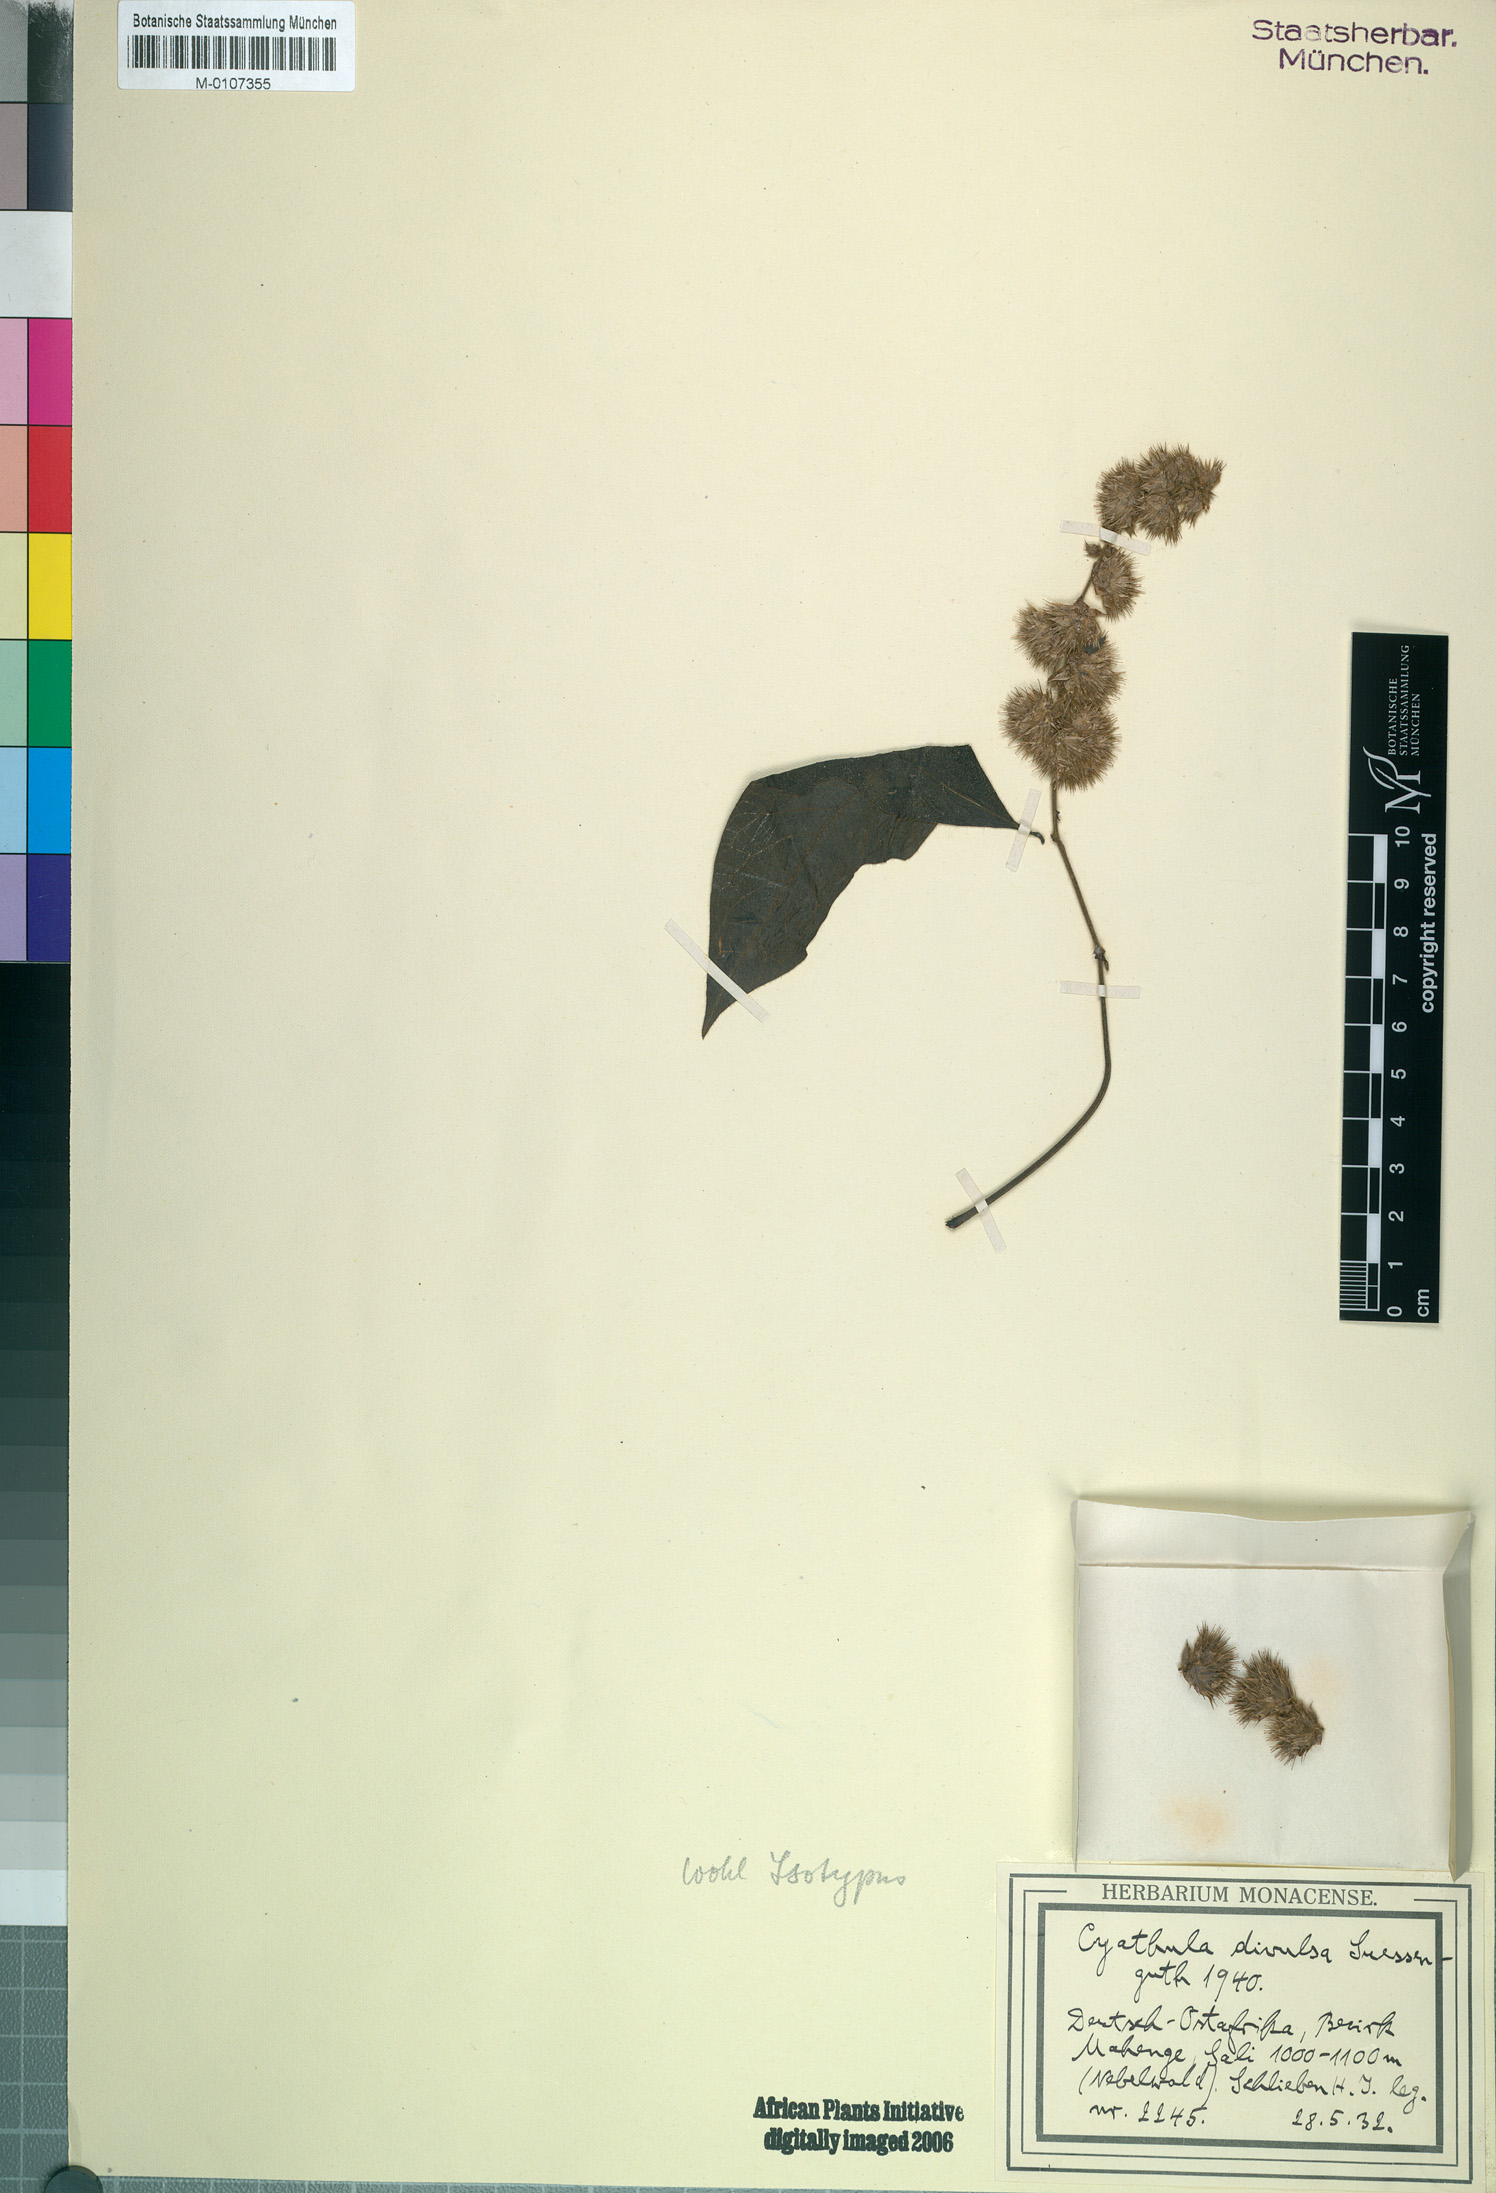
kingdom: Plantae
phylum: Tracheophyta
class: Magnoliopsida
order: Caryophyllales
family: Amaranthaceae
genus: Cyathula
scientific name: Cyathula divulsa
